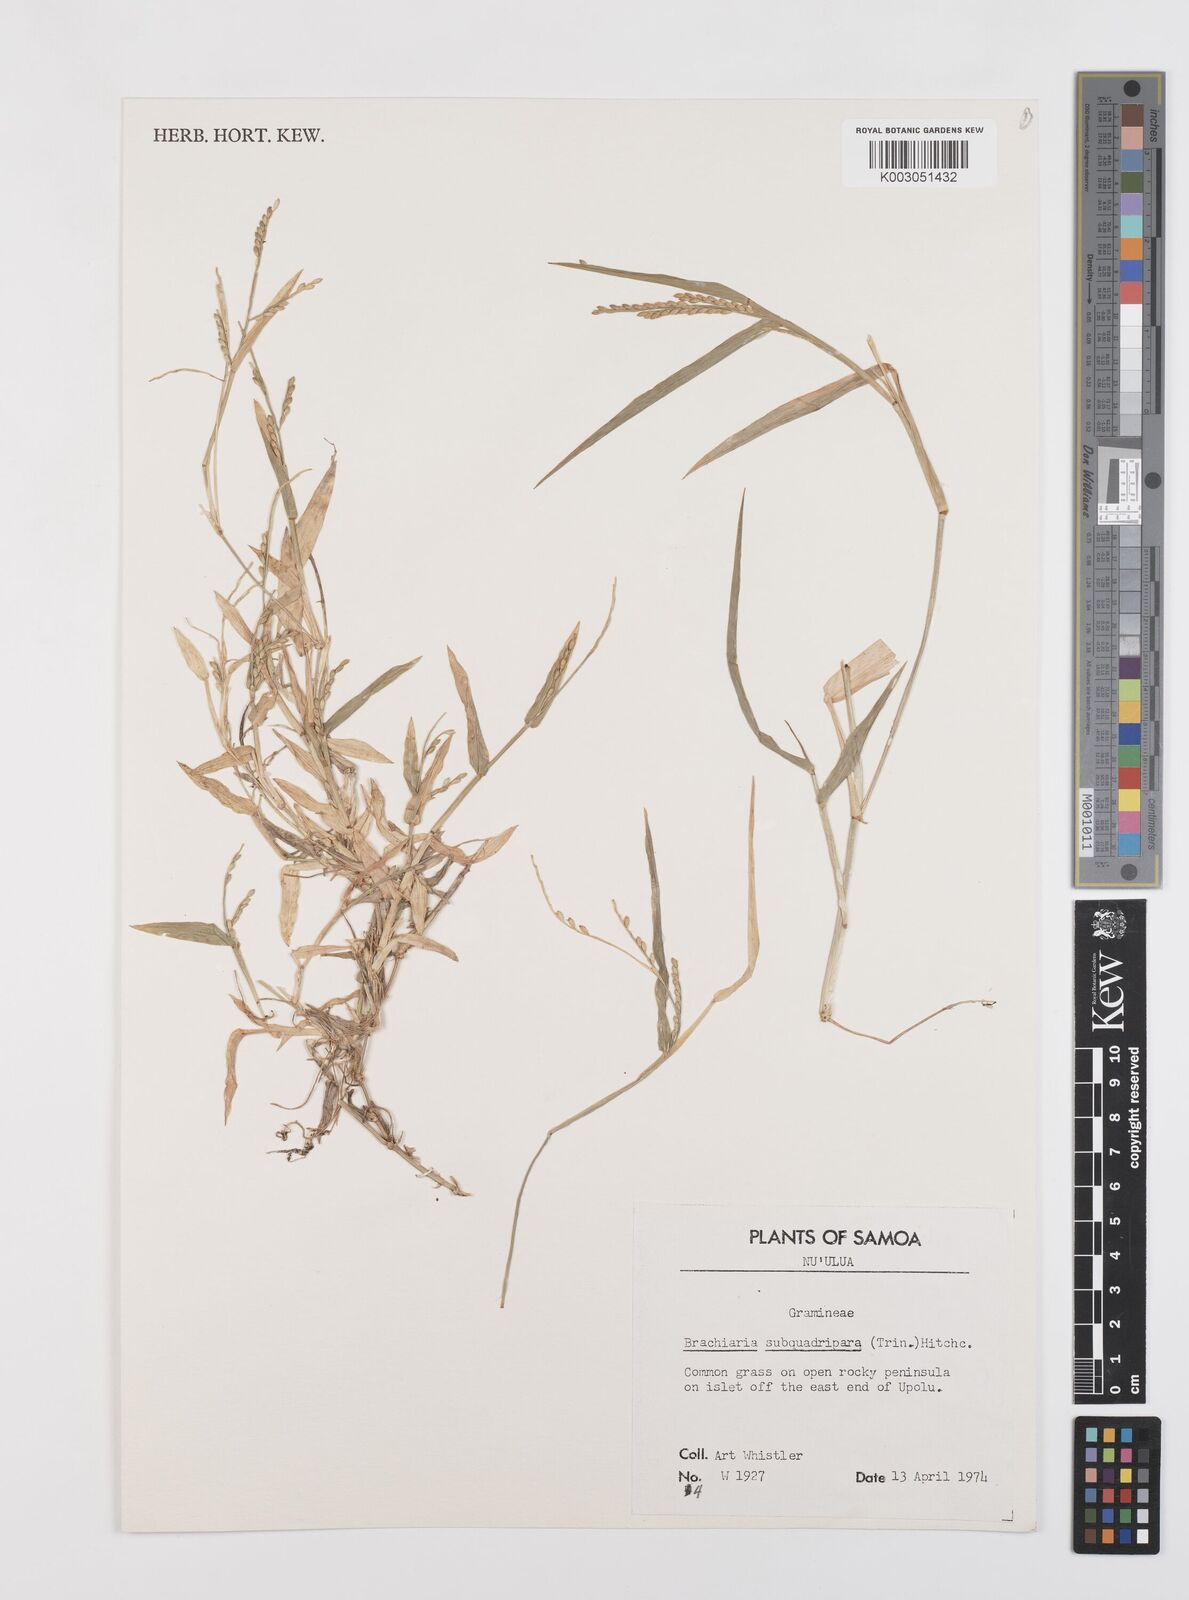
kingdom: Plantae
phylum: Tracheophyta
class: Liliopsida
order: Poales
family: Poaceae
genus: Urochloa
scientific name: Urochloa subquadripara
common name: Armgrass millet
